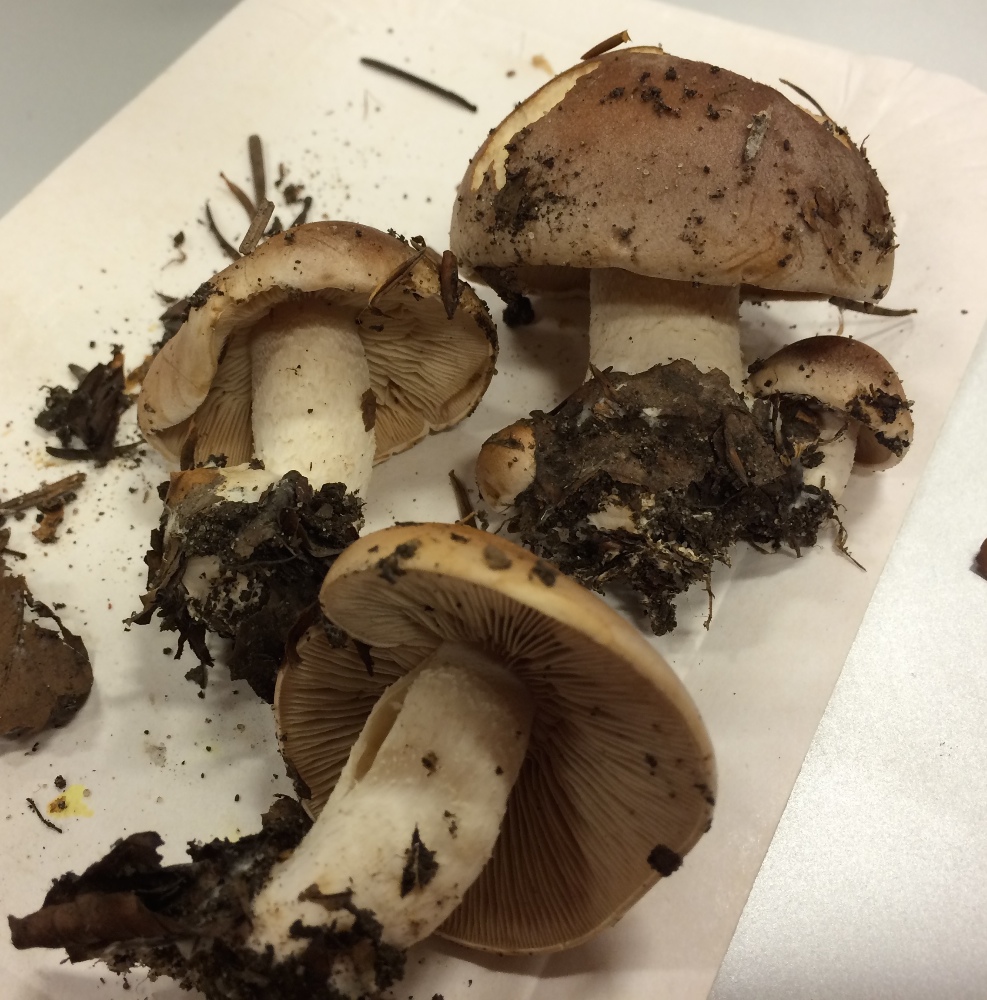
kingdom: Fungi
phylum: Basidiomycota
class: Agaricomycetes
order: Agaricales
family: Hymenogastraceae
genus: Hebeloma
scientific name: Hebeloma theobrominum
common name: rødbrun tåreblad
